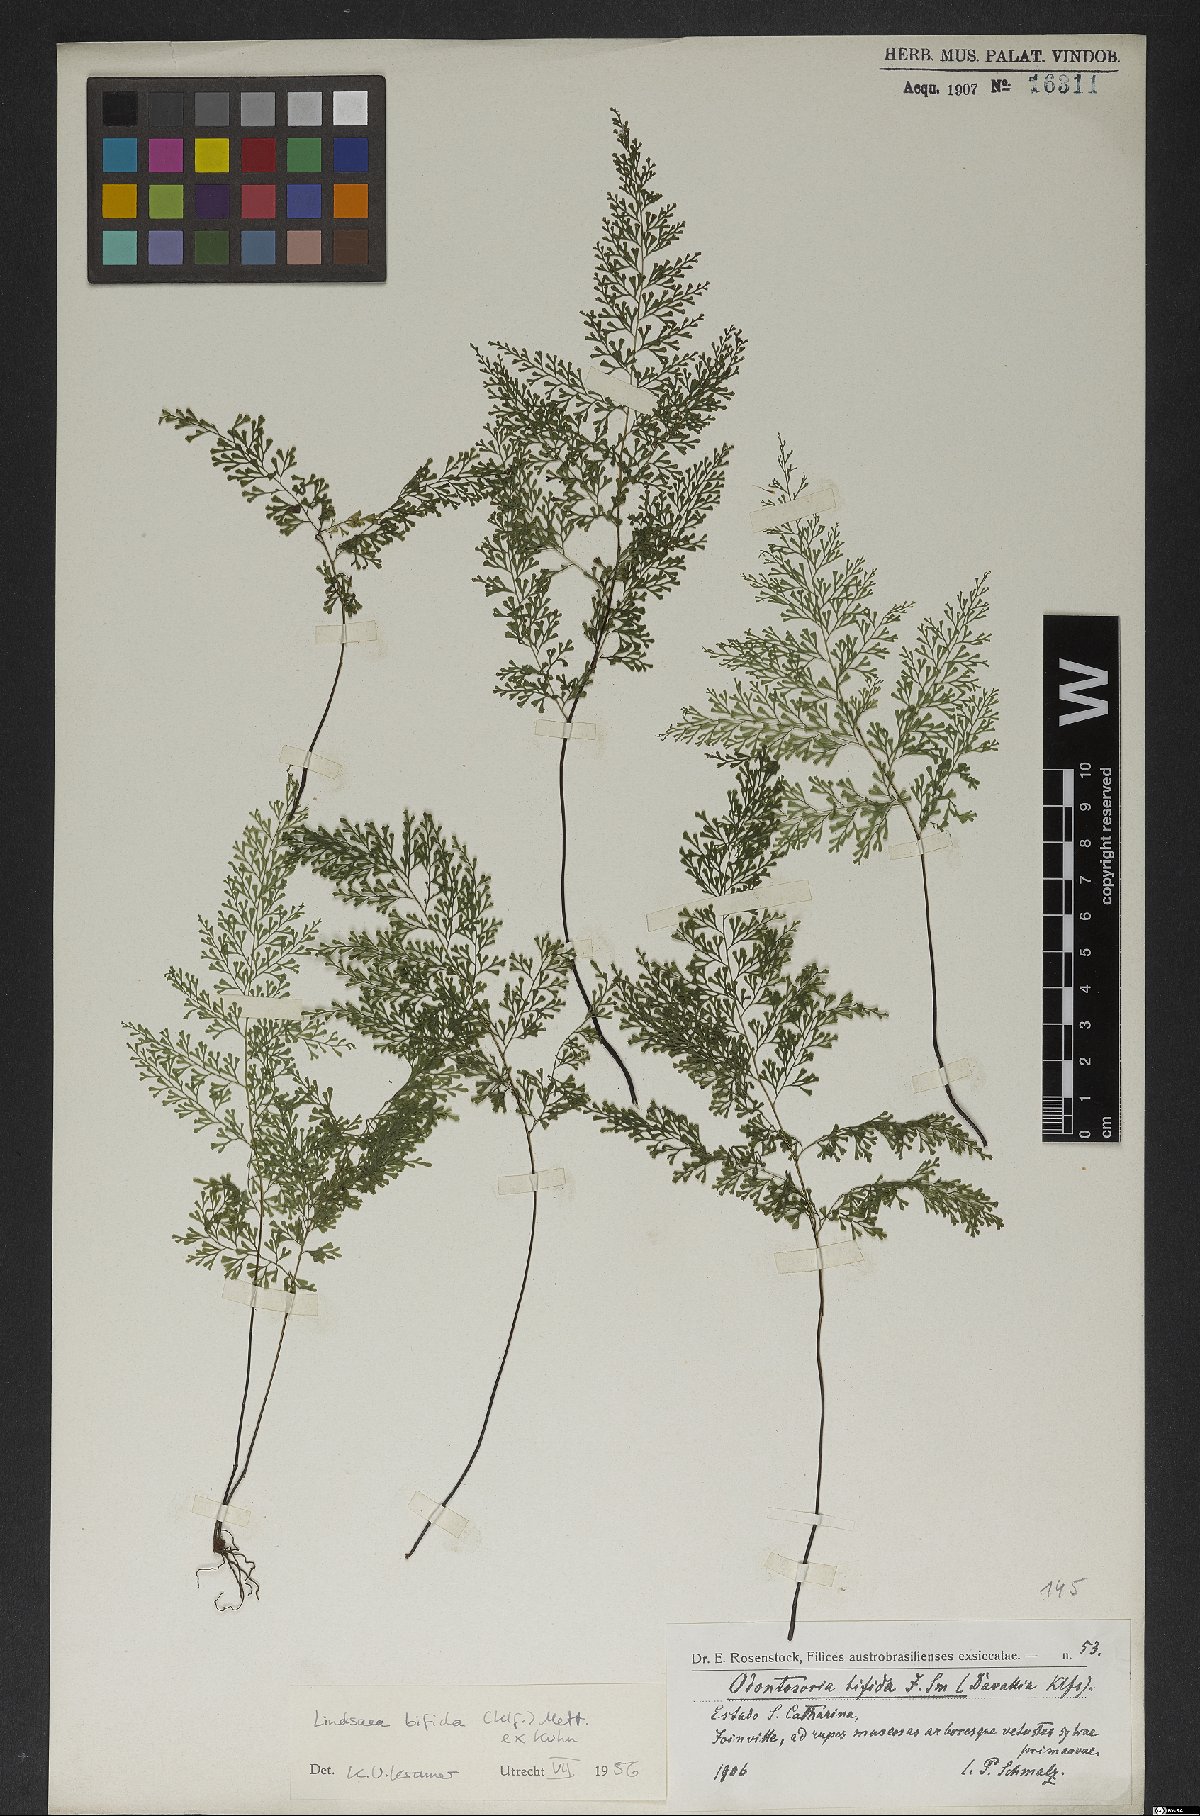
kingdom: Plantae
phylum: Tracheophyta
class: Polypodiopsida
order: Polypodiales
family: Lindsaeaceae
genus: Lindsaea
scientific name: Lindsaea bifida
